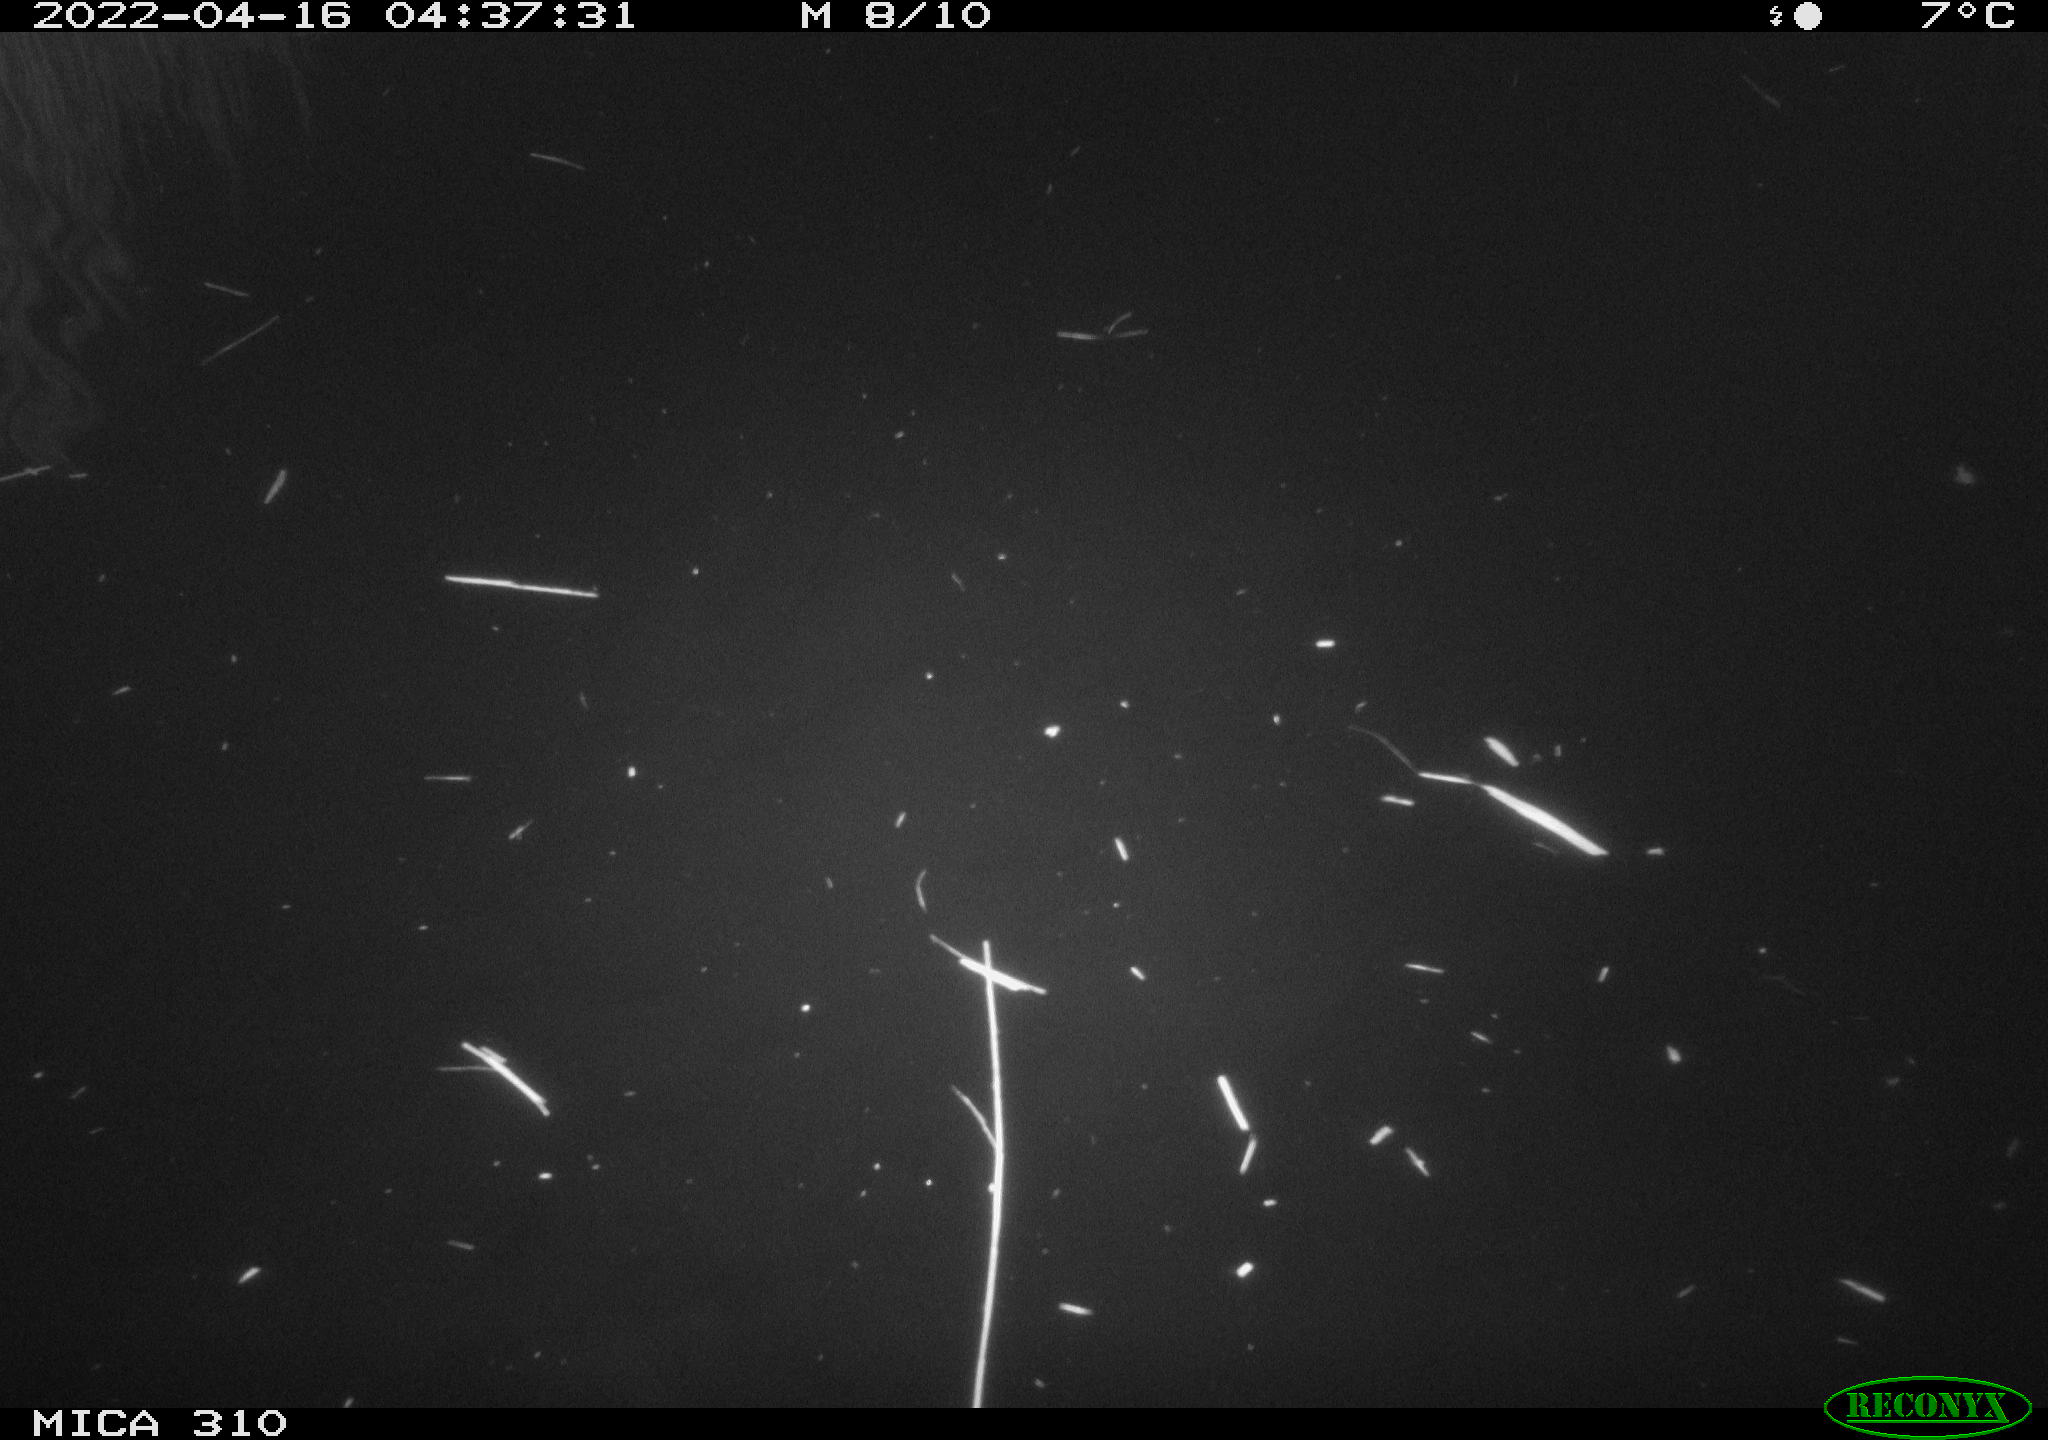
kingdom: Animalia
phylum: Chordata
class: Aves
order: Anseriformes
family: Anatidae
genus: Anas
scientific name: Anas platyrhynchos
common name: Mallard
